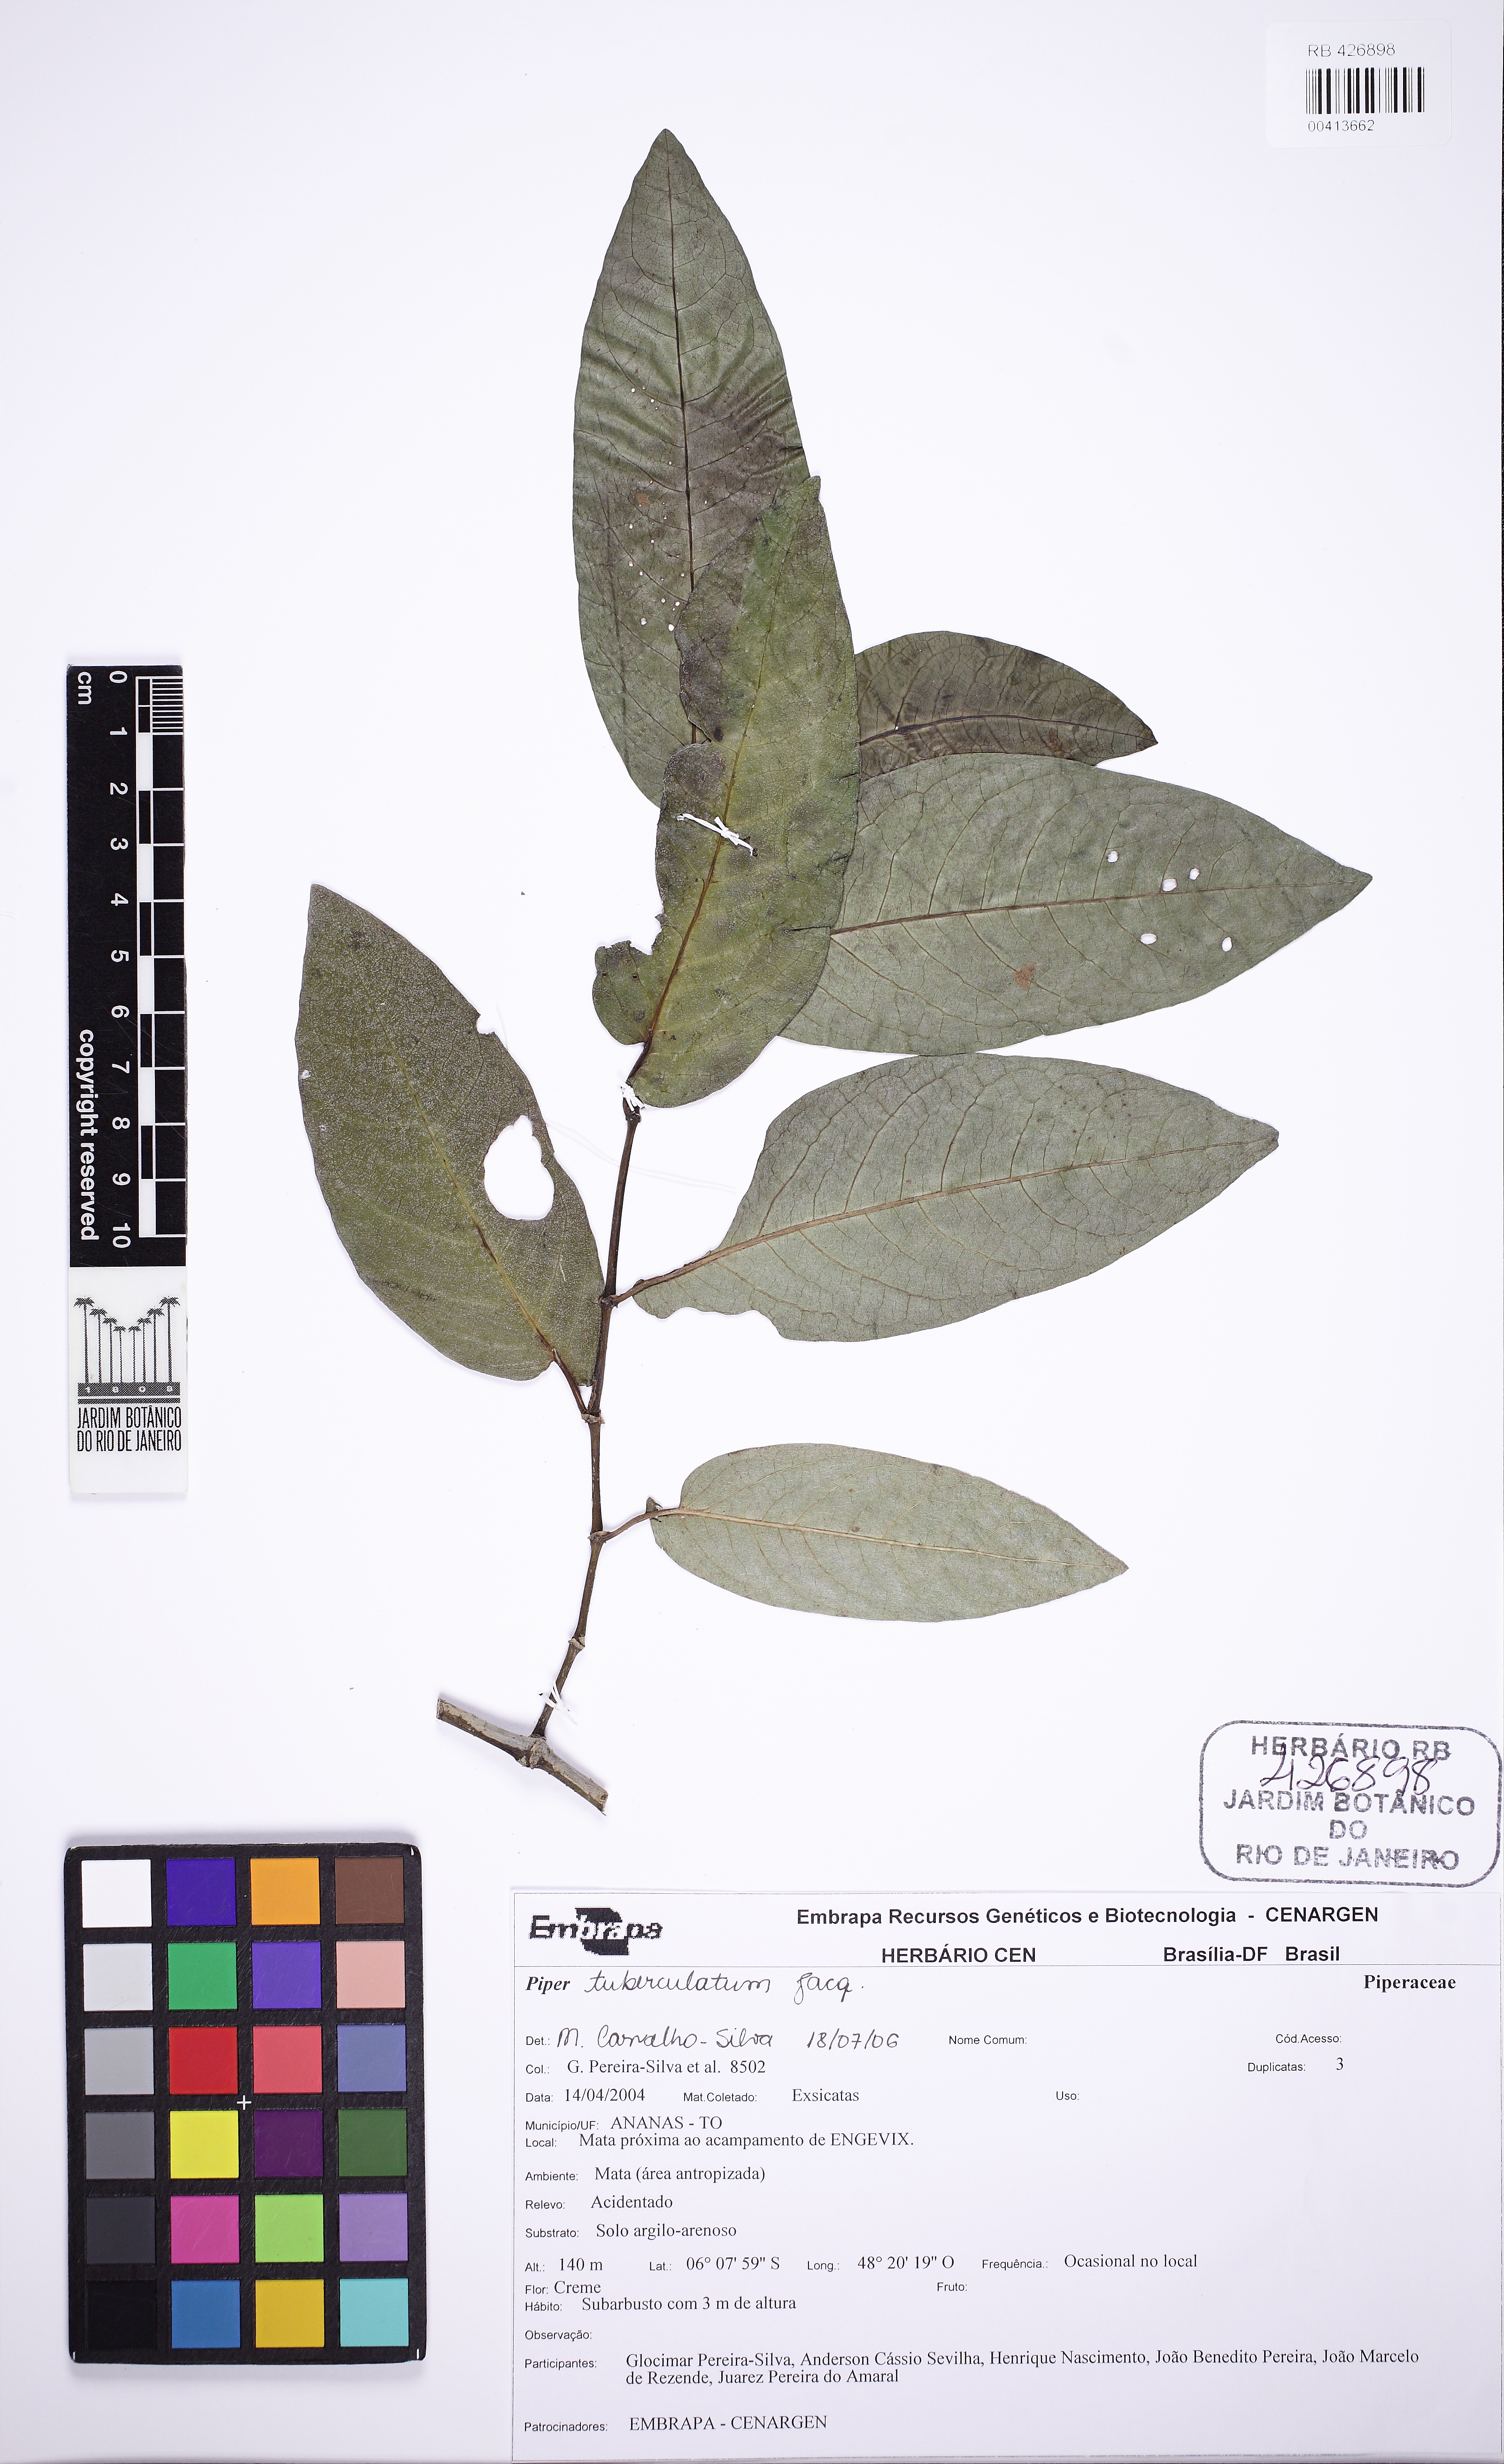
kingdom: Plantae
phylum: Tracheophyta
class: Magnoliopsida
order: Piperales
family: Piperaceae
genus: Piper
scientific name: Piper tuberculatum
